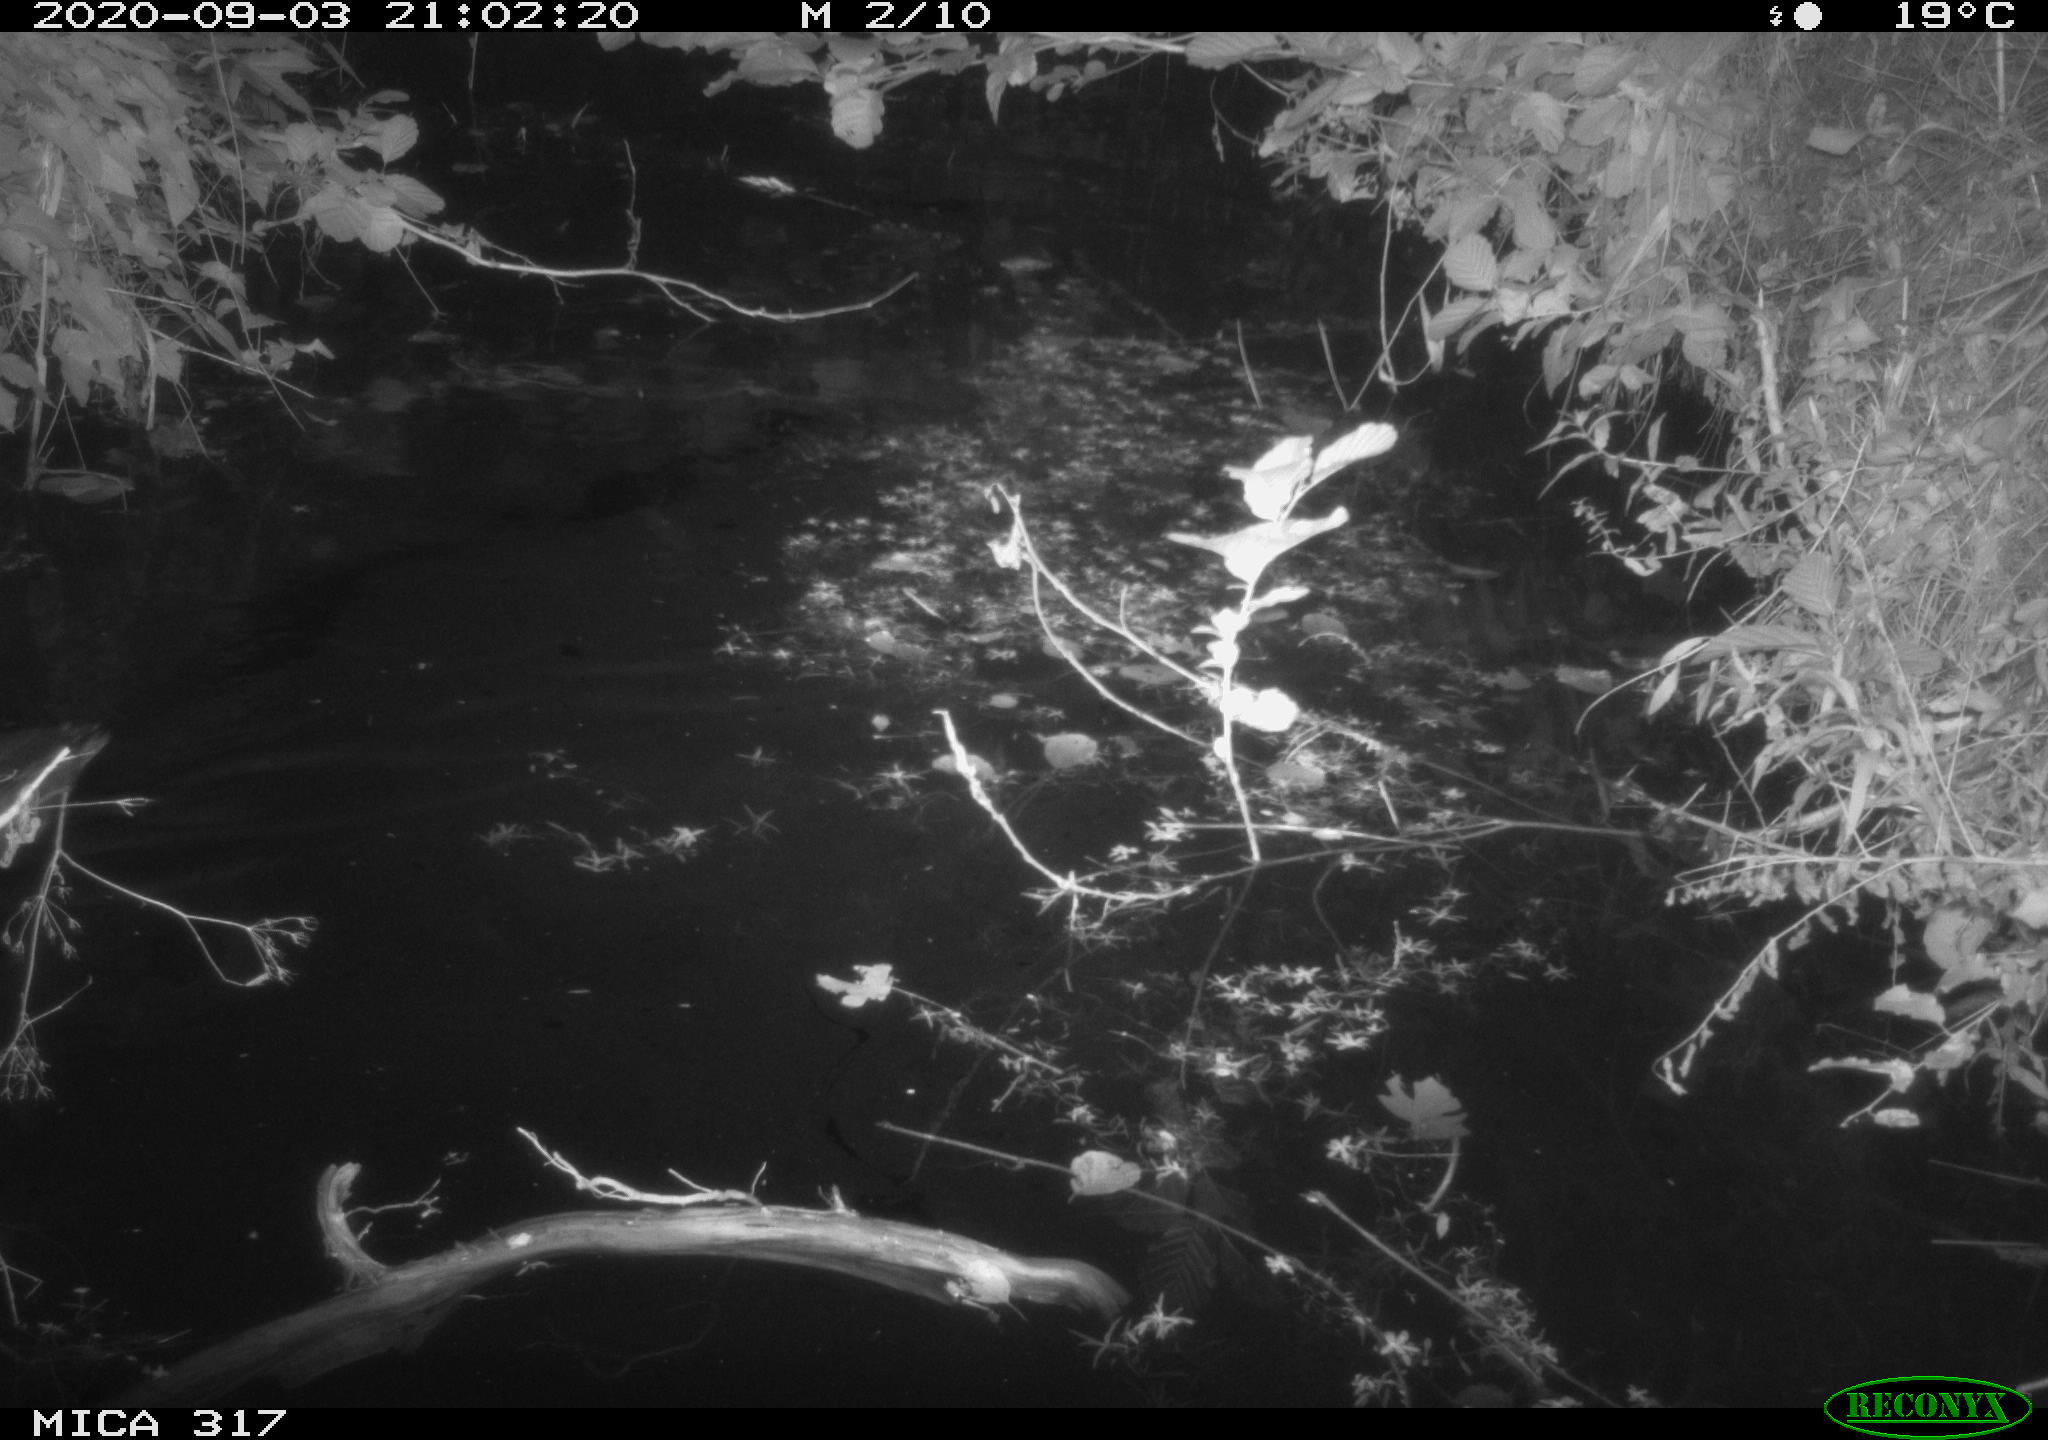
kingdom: Animalia
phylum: Chordata
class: Aves
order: Anseriformes
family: Anatidae
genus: Anas
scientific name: Anas platyrhynchos
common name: Mallard
